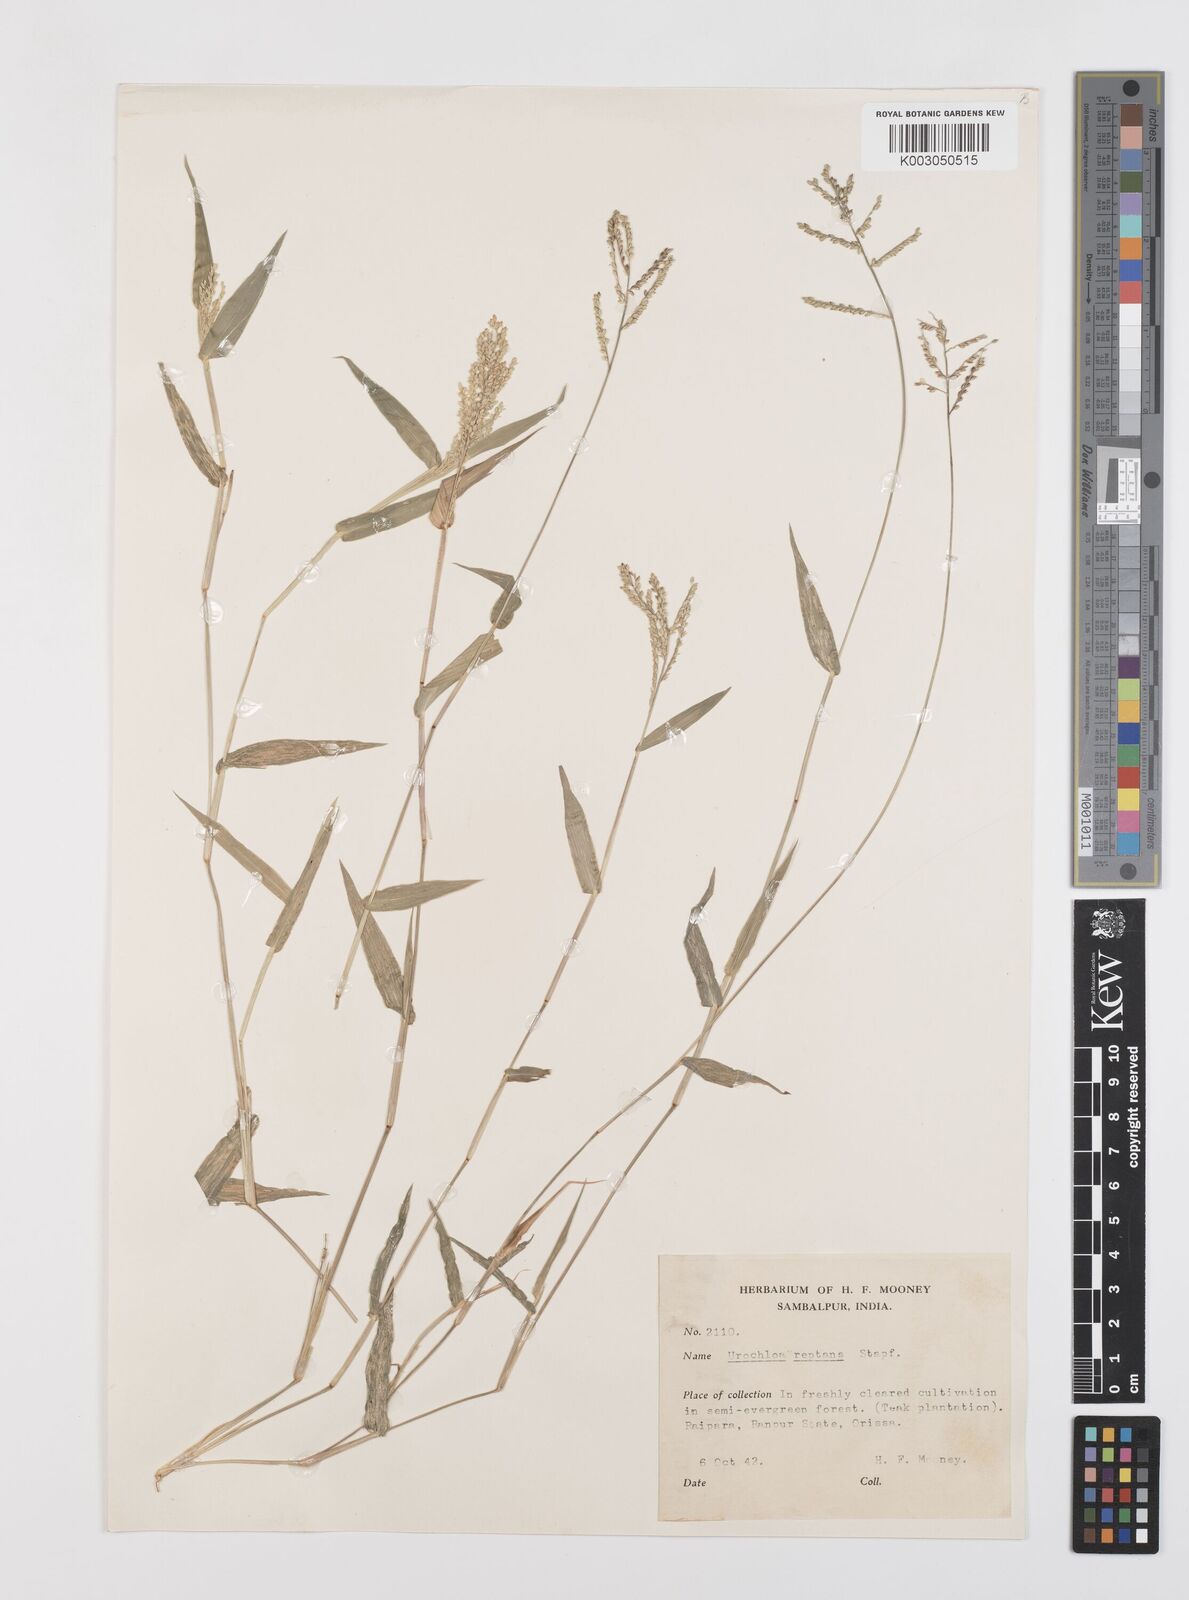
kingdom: Plantae
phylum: Tracheophyta
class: Liliopsida
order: Poales
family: Poaceae
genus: Urochloa
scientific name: Urochloa reptans
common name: Sprawling signalgrass
